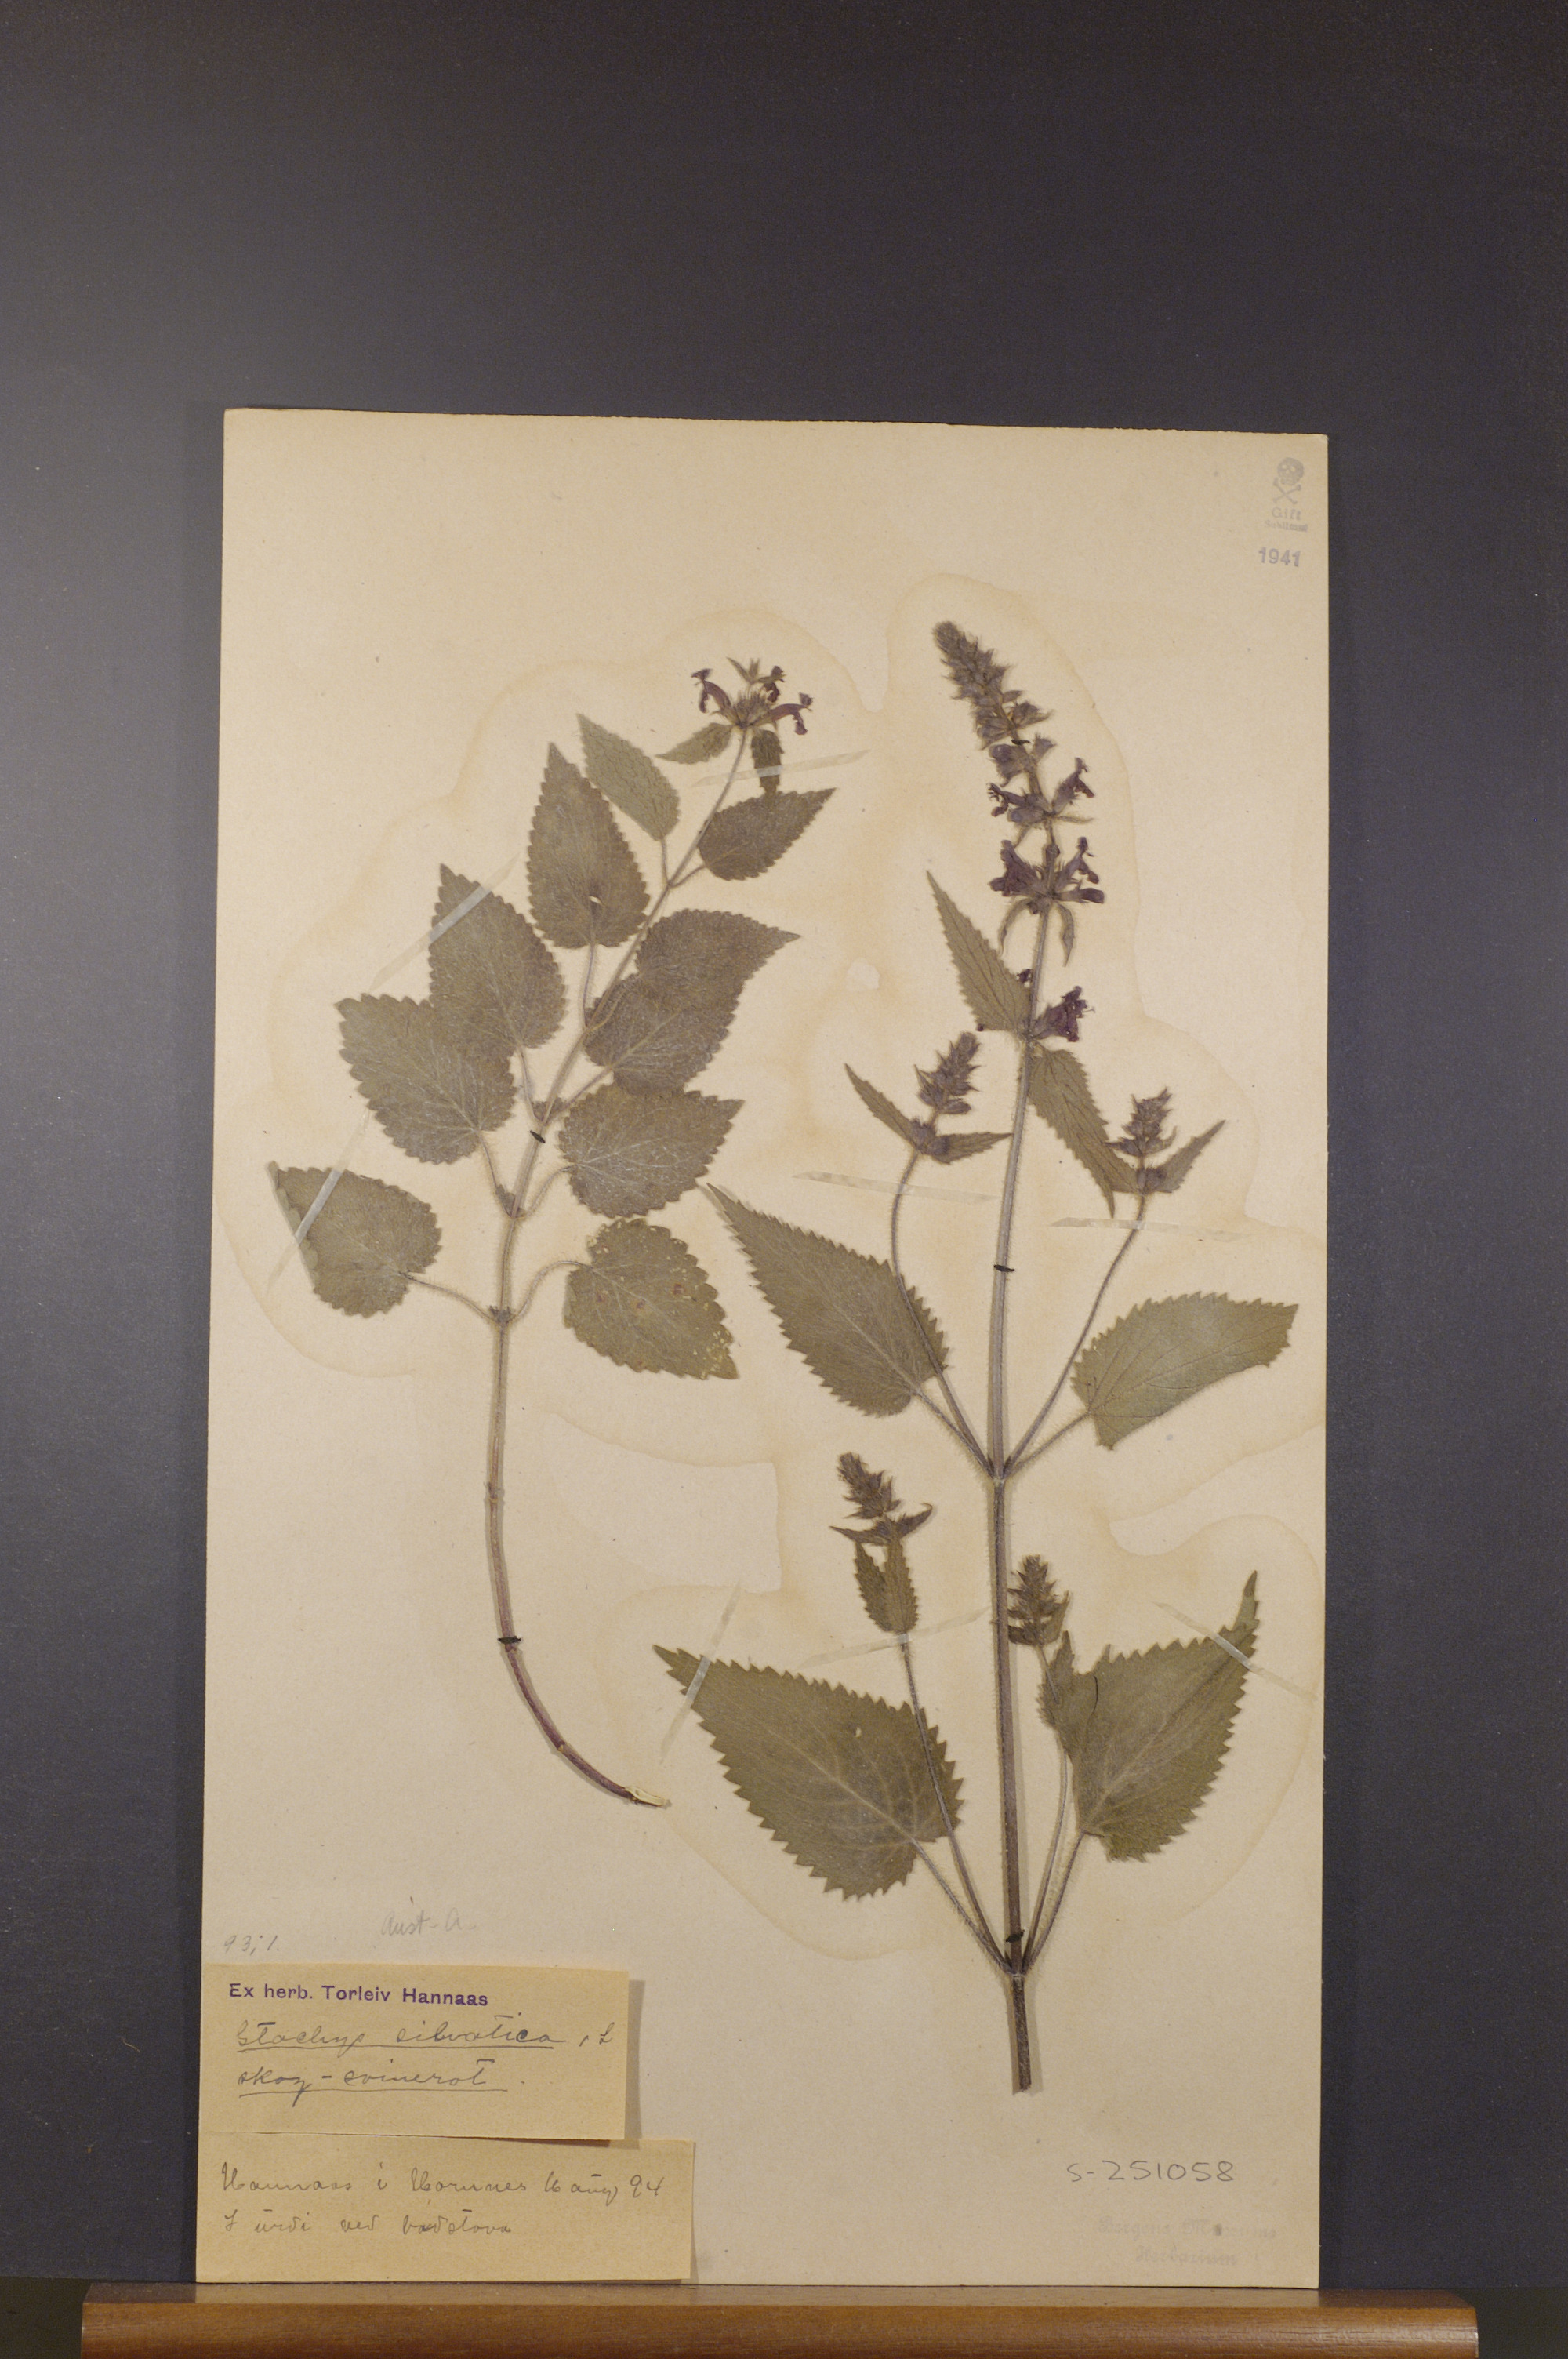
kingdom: Plantae
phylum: Tracheophyta
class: Magnoliopsida
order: Lamiales
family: Lamiaceae
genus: Stachys
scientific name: Stachys sylvatica
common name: Hedge woundwort
